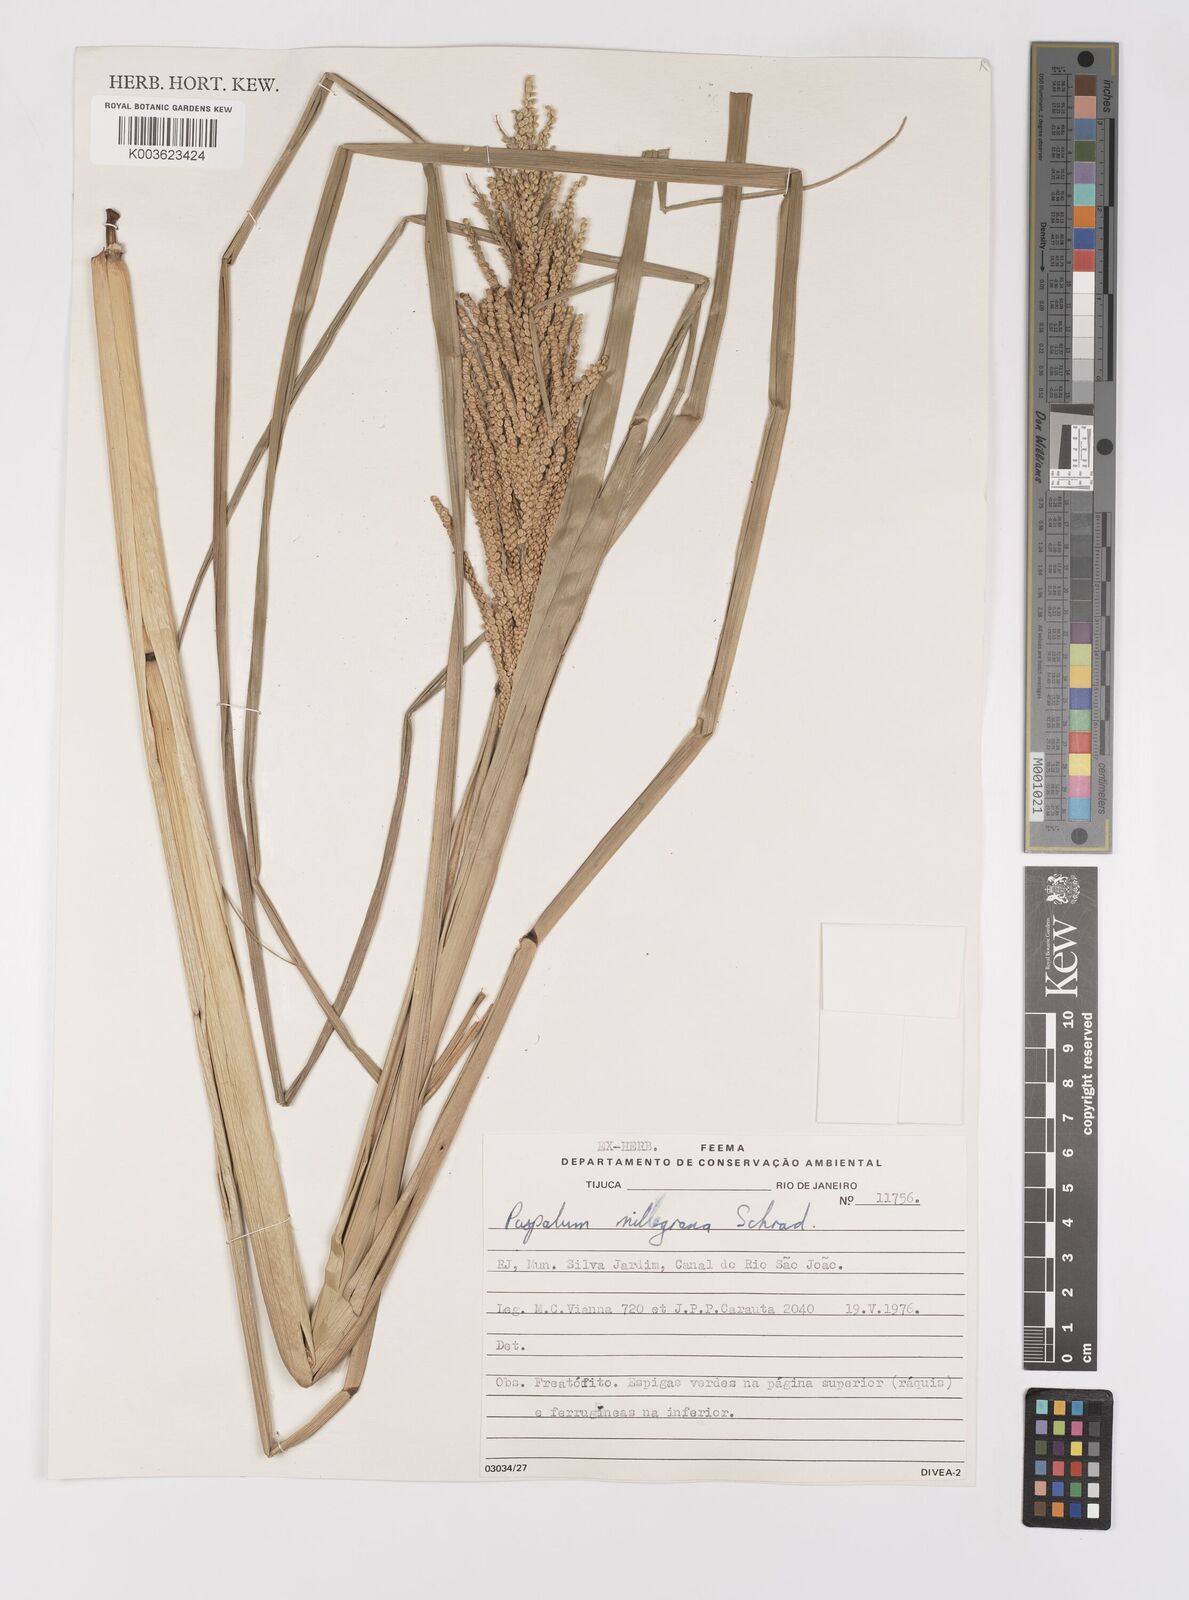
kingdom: Plantae
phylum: Tracheophyta
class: Liliopsida
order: Poales
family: Poaceae
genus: Paspalum
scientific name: Paspalum millegranum
